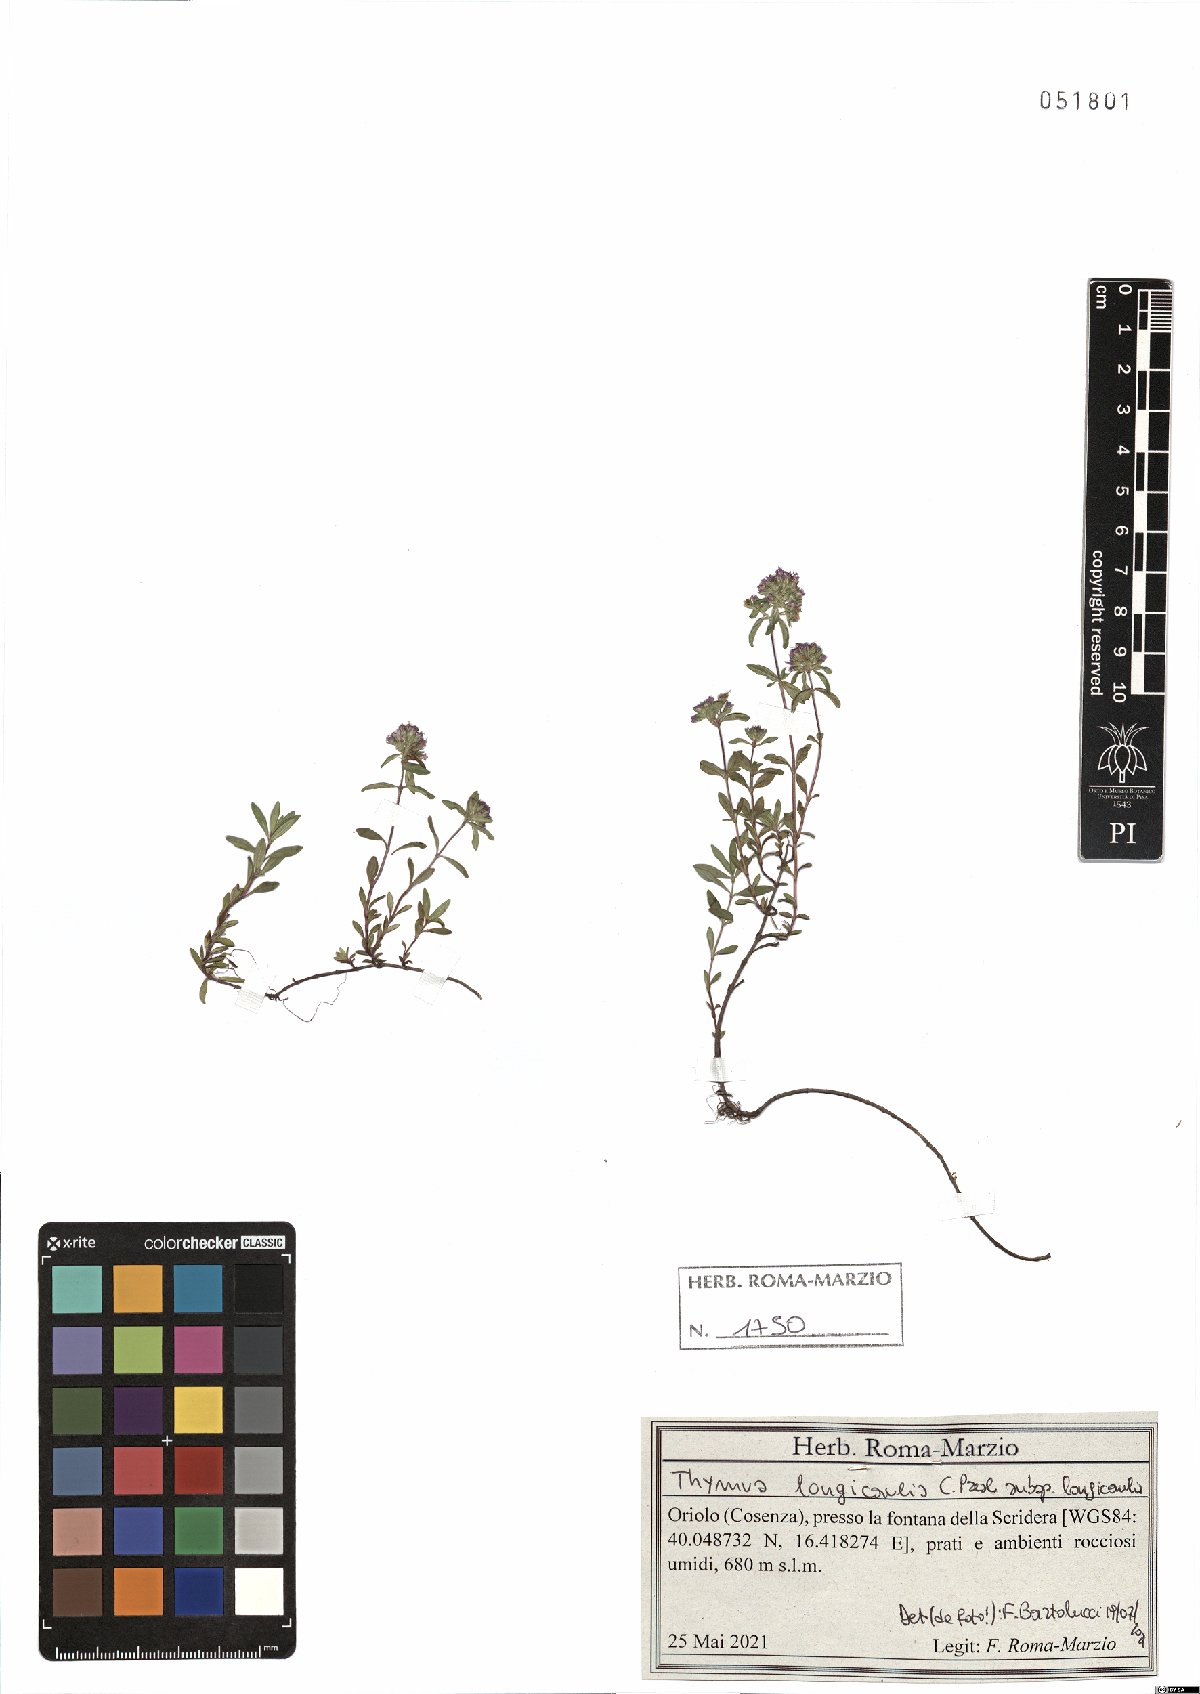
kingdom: Plantae
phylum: Tracheophyta
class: Magnoliopsida
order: Lamiales
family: Lamiaceae
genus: Thymus
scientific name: Thymus longicaulis
